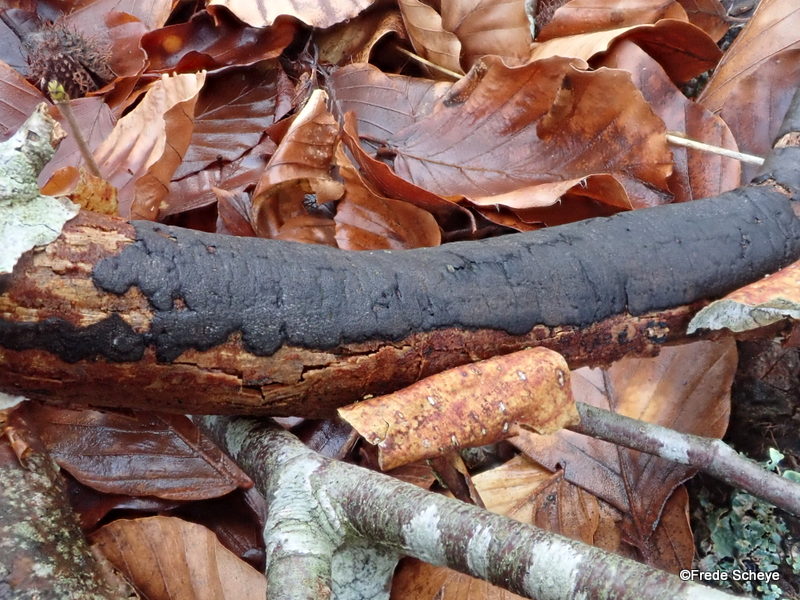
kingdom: Fungi
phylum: Ascomycota
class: Sordariomycetes
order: Xylariales
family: Diatrypaceae
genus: Diatrype
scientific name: Diatrype decorticata
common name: barksprænger-kulskorpe
